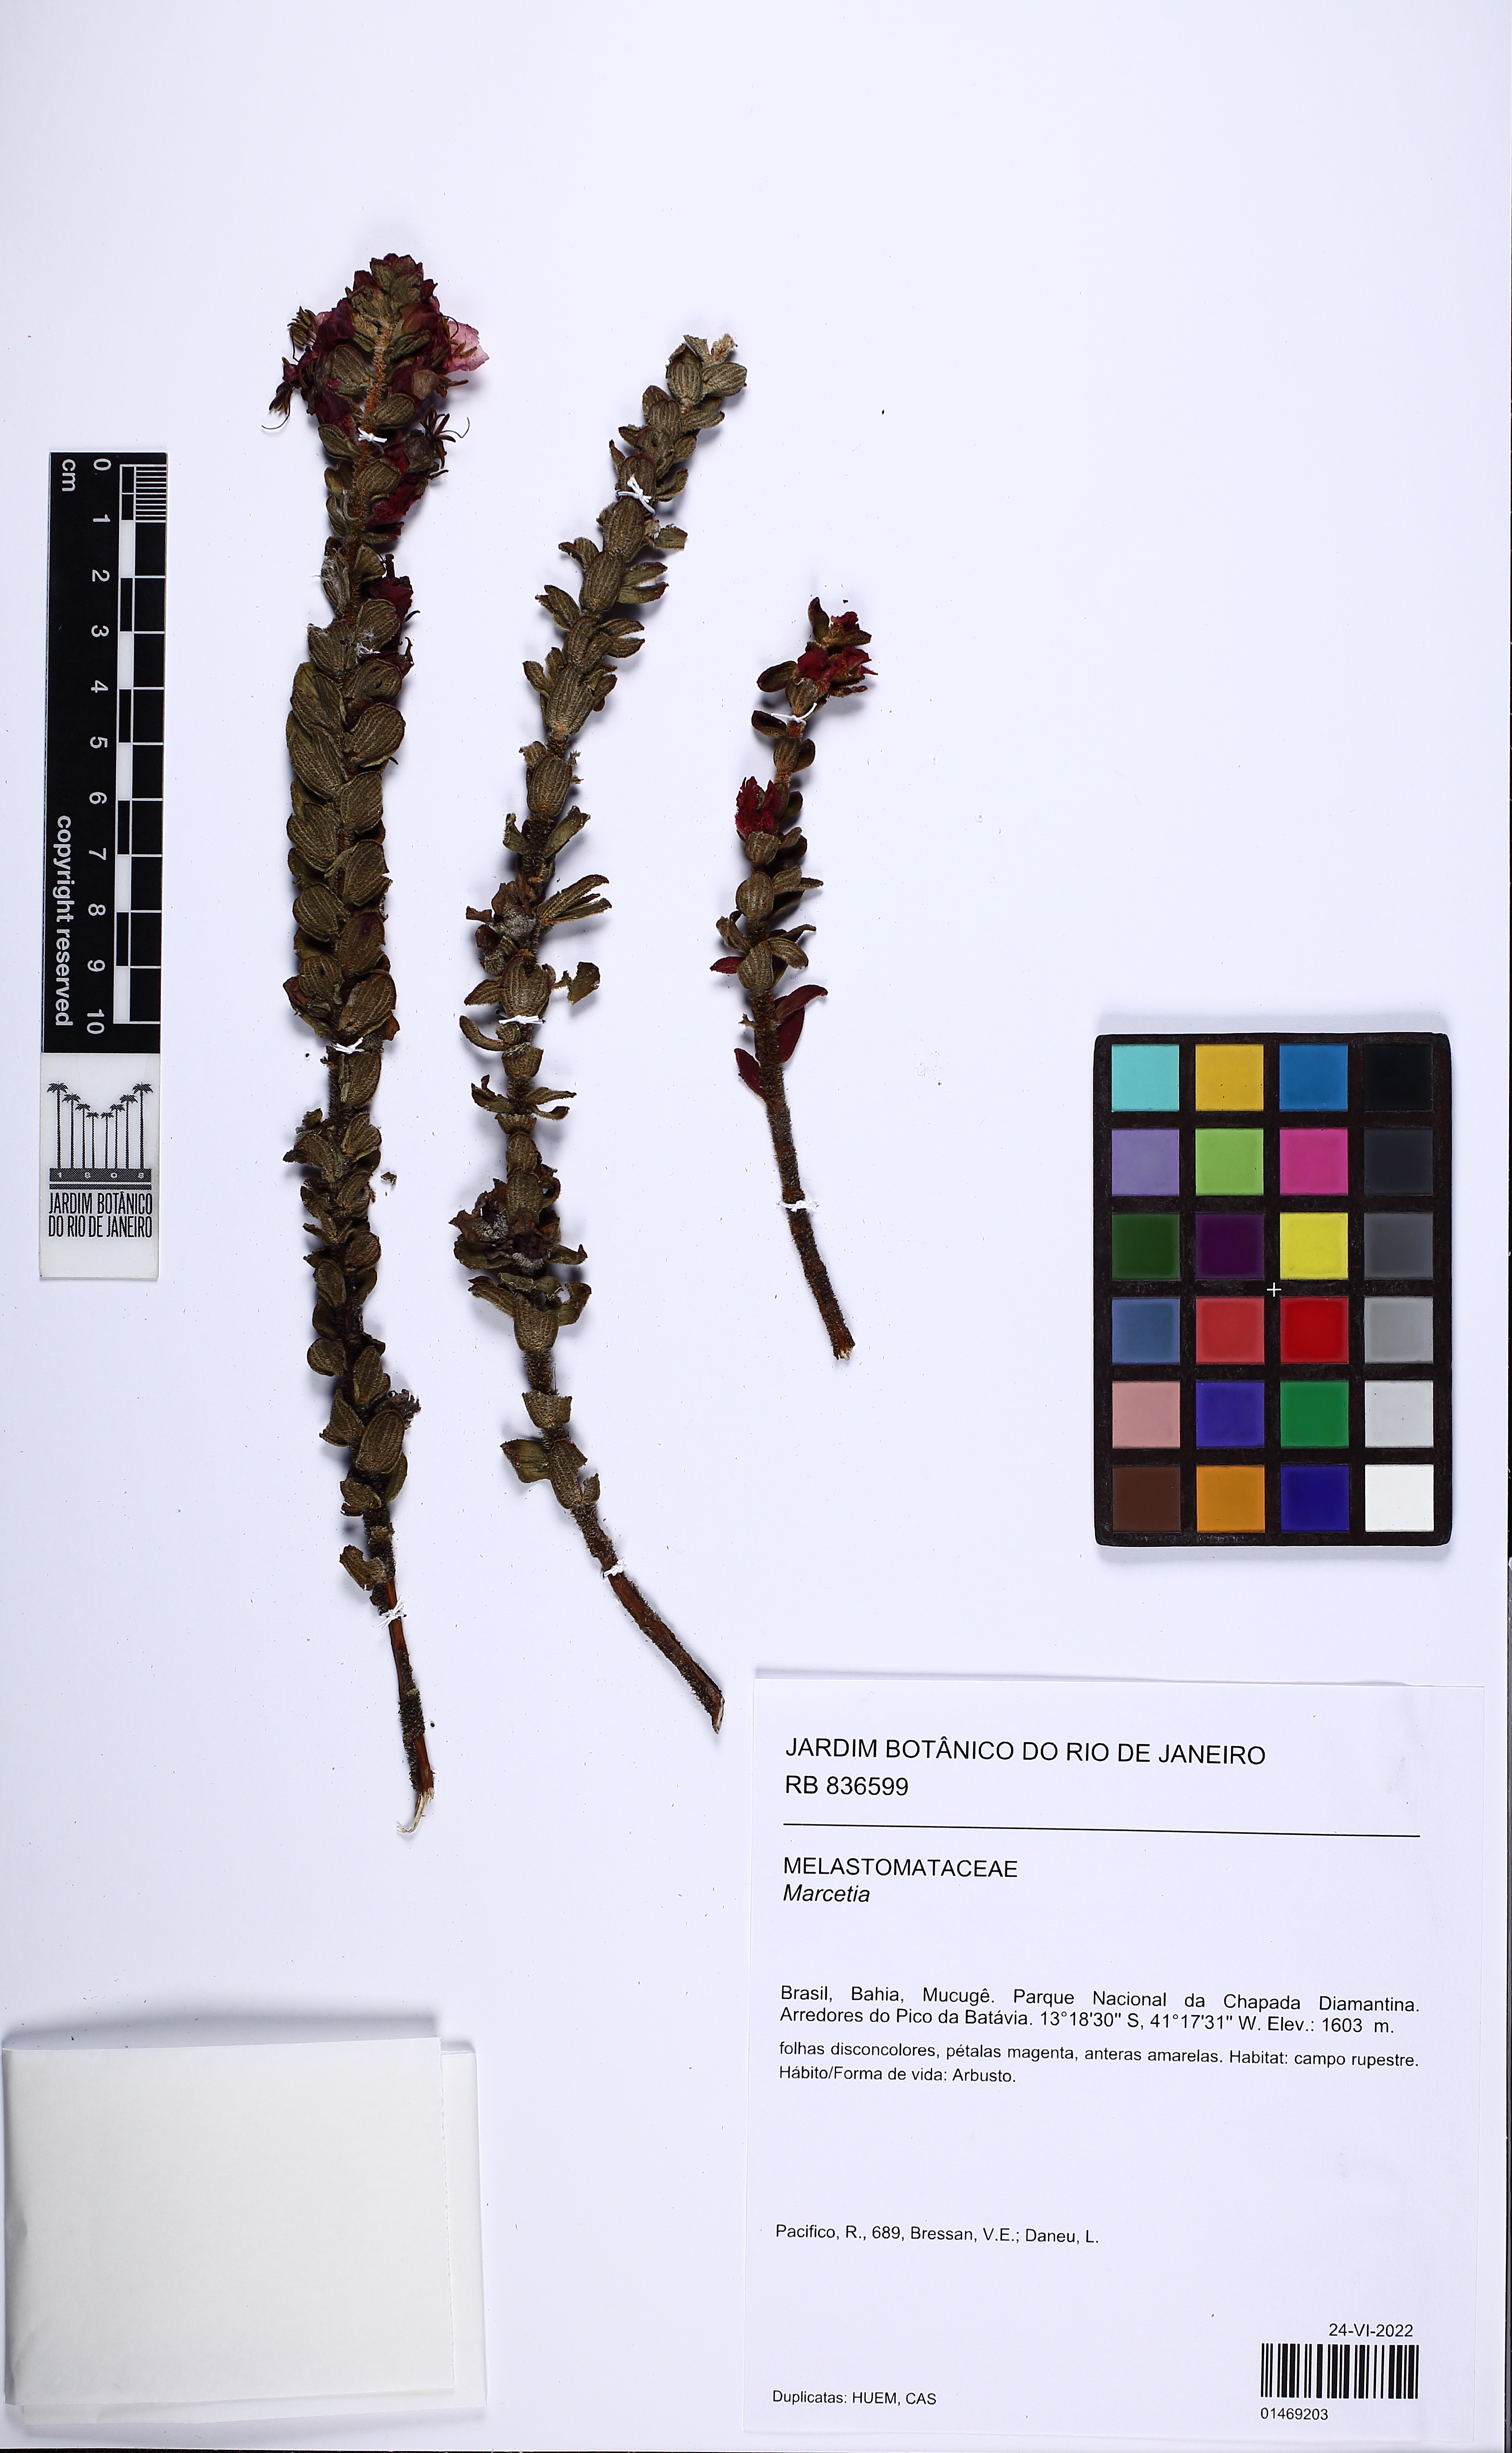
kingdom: Plantae
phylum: Tracheophyta
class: Magnoliopsida
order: Myrtales
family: Melastomataceae
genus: Marcetia
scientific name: Marcetia
